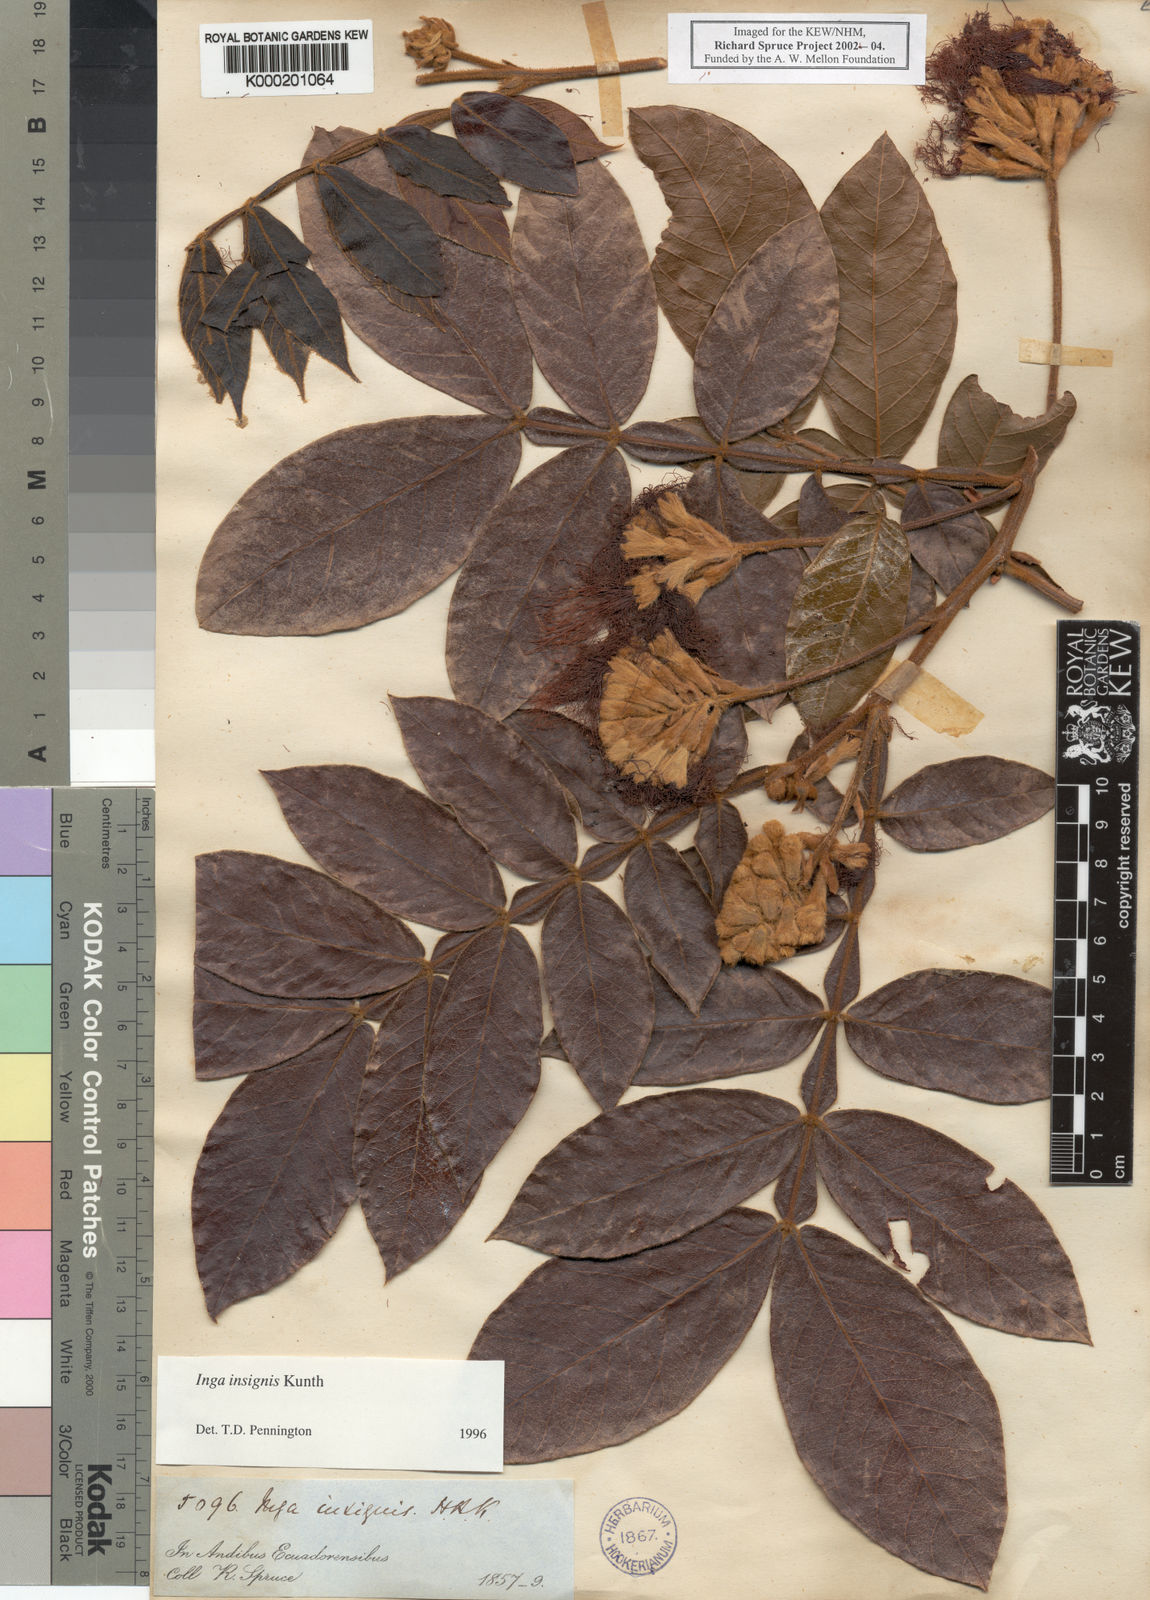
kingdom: Plantae
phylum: Tracheophyta
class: Magnoliopsida
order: Fabales
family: Fabaceae
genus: Inga
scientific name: Inga insignis
